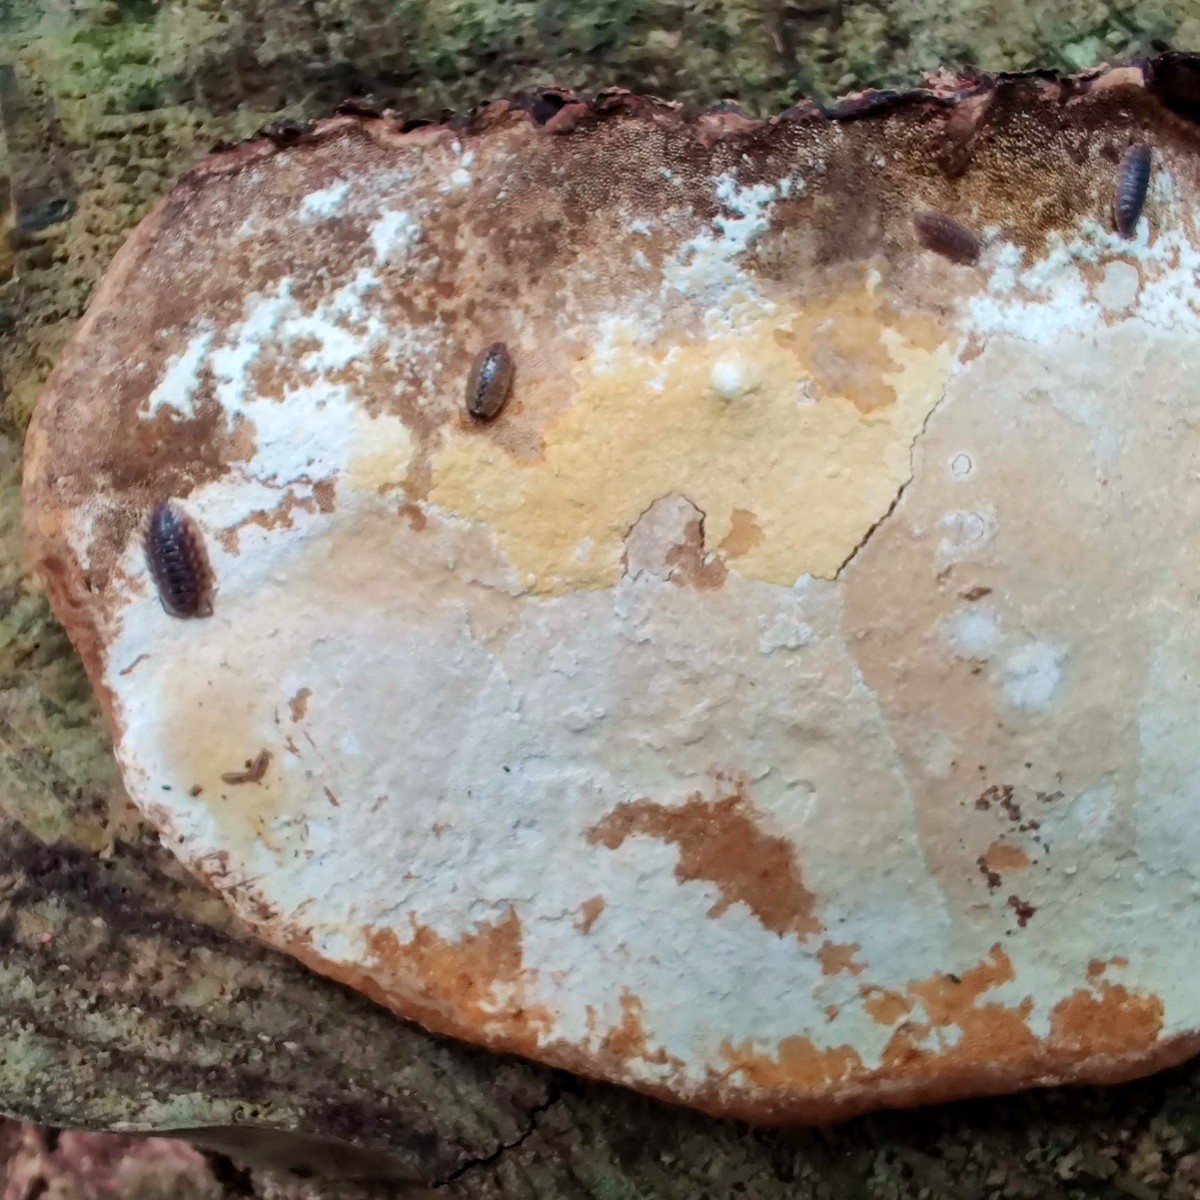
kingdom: Fungi
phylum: Ascomycota
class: Sordariomycetes
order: Hypocreales
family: Hypocreaceae
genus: Trichoderma
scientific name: Trichoderma protopulvinatum
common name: hovpore-kødkerne
